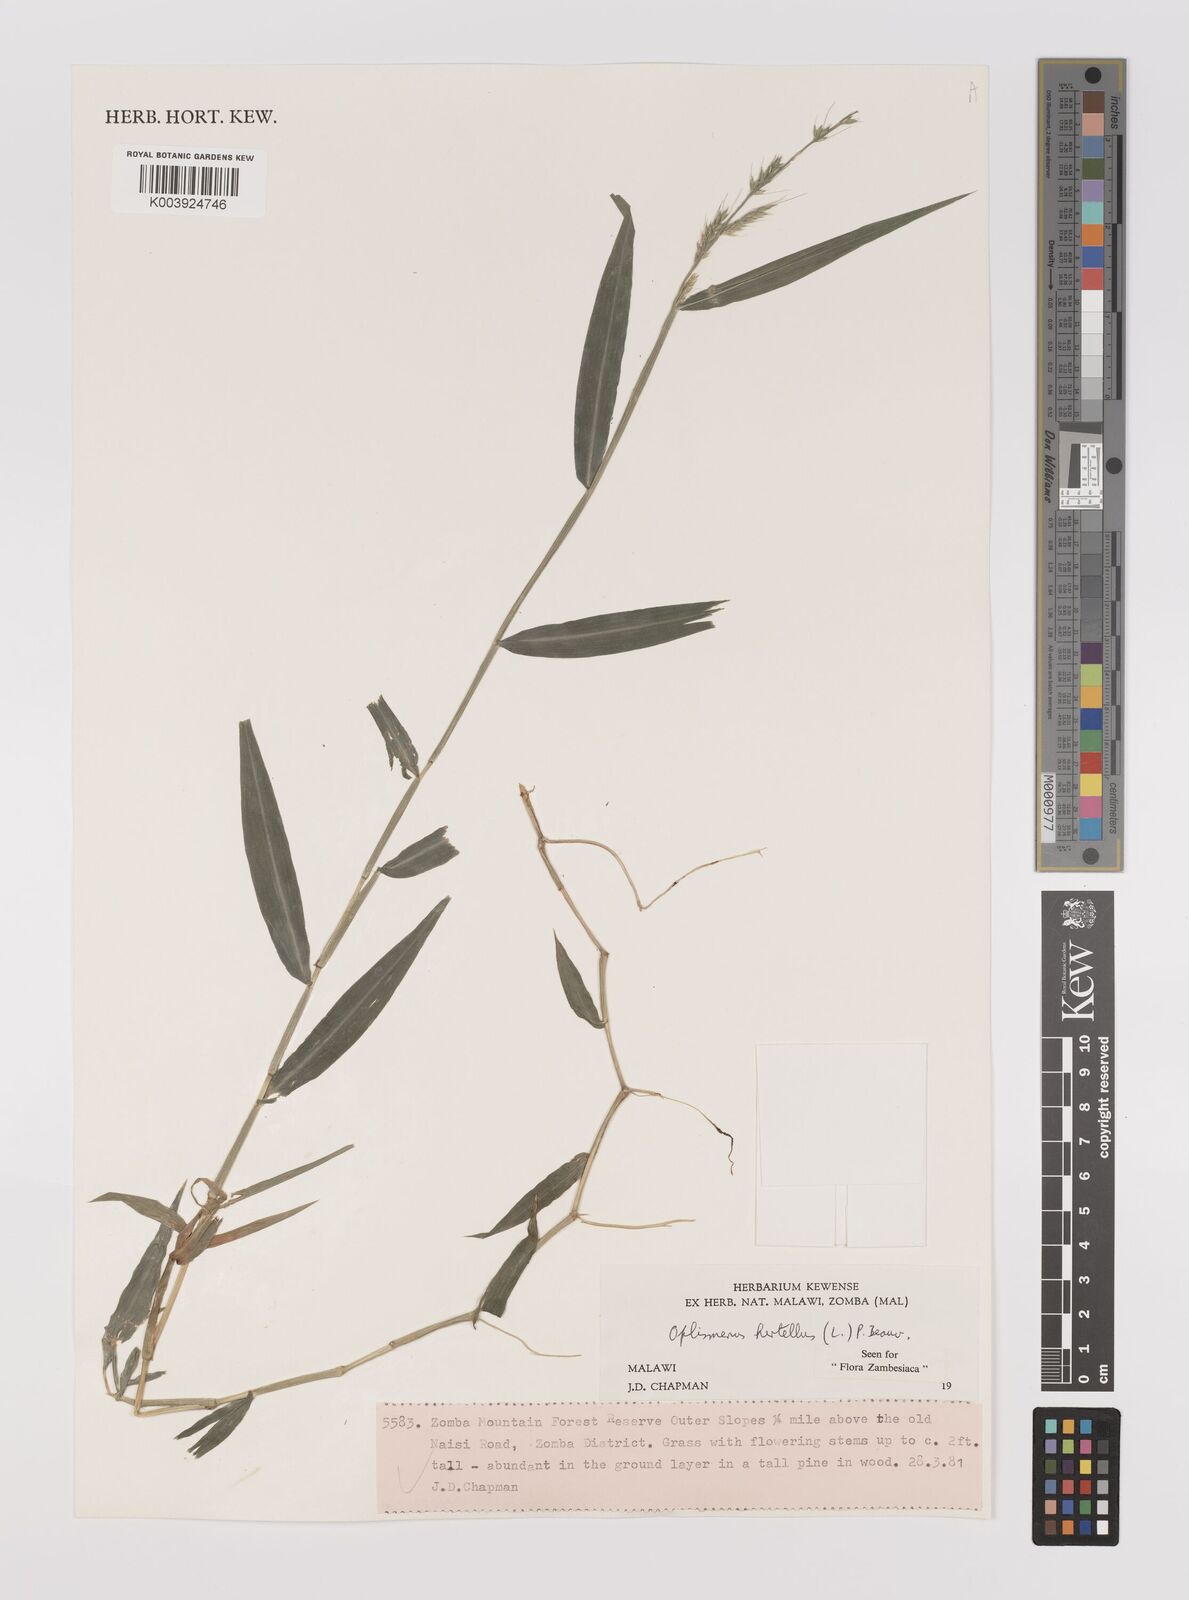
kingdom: Plantae
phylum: Tracheophyta
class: Liliopsida
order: Poales
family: Poaceae
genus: Oplismenus
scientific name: Oplismenus hirtellus
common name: Basketgrass
